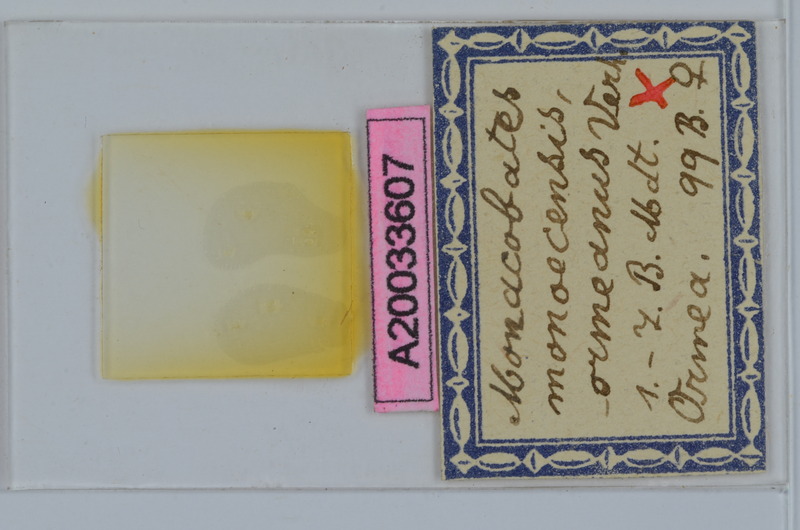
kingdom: Animalia
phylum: Arthropoda
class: Diplopoda
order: Julida
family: Blaniulidae
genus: Monacobates
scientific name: Monacobates monoecensis
